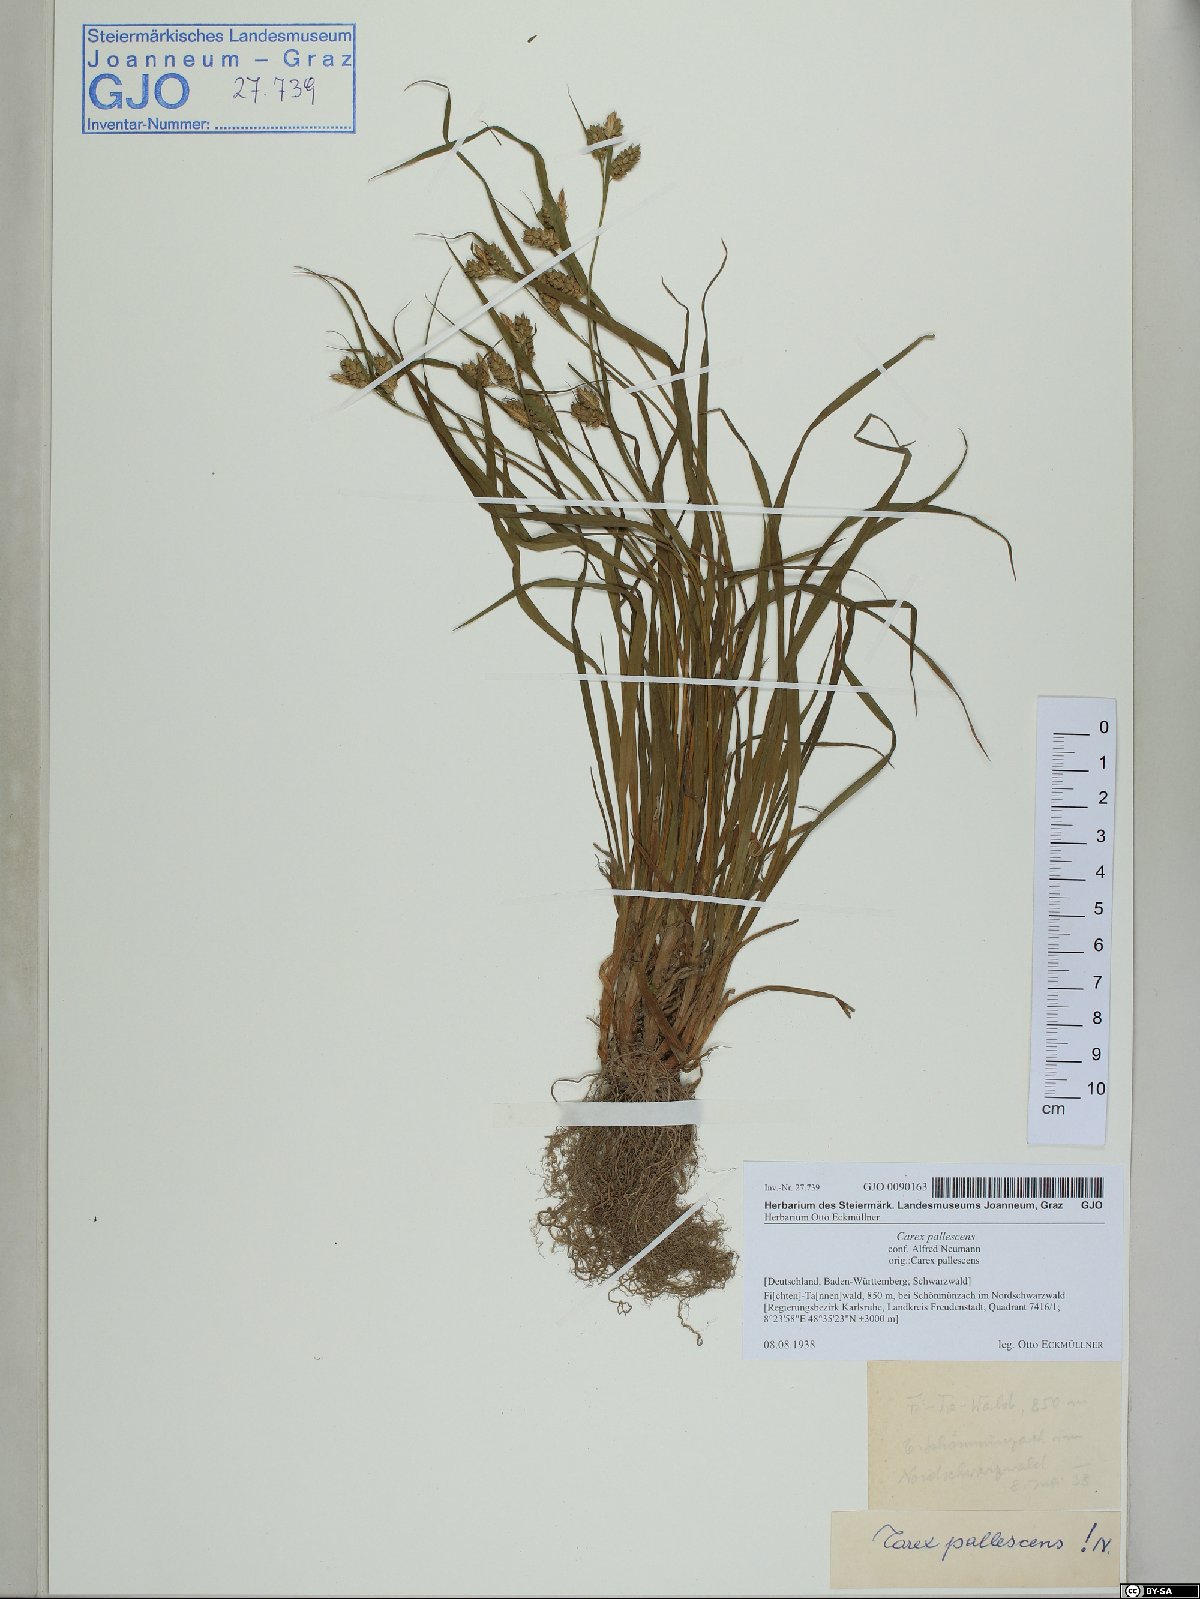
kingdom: Plantae
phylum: Tracheophyta
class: Liliopsida
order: Poales
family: Cyperaceae
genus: Carex
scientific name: Carex pallescens
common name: Pale sedge
